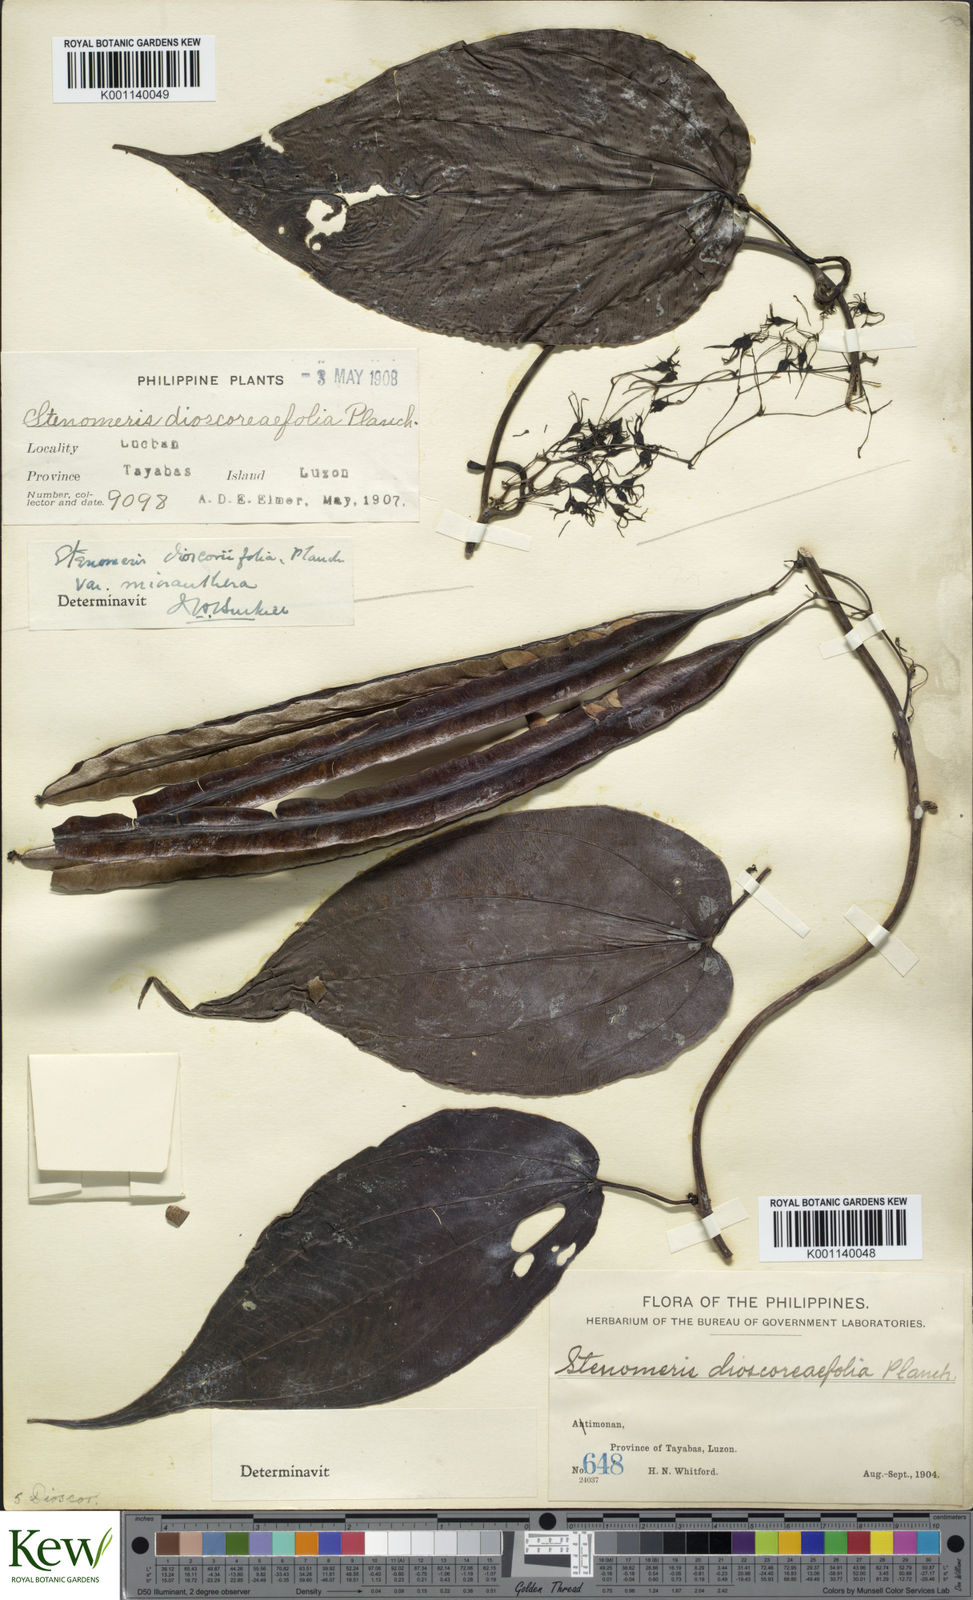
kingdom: Plantae
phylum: Tracheophyta
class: Liliopsida
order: Dioscoreales
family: Dioscoreaceae
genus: Stenomeris
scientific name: Stenomeris dioscoreifolia
